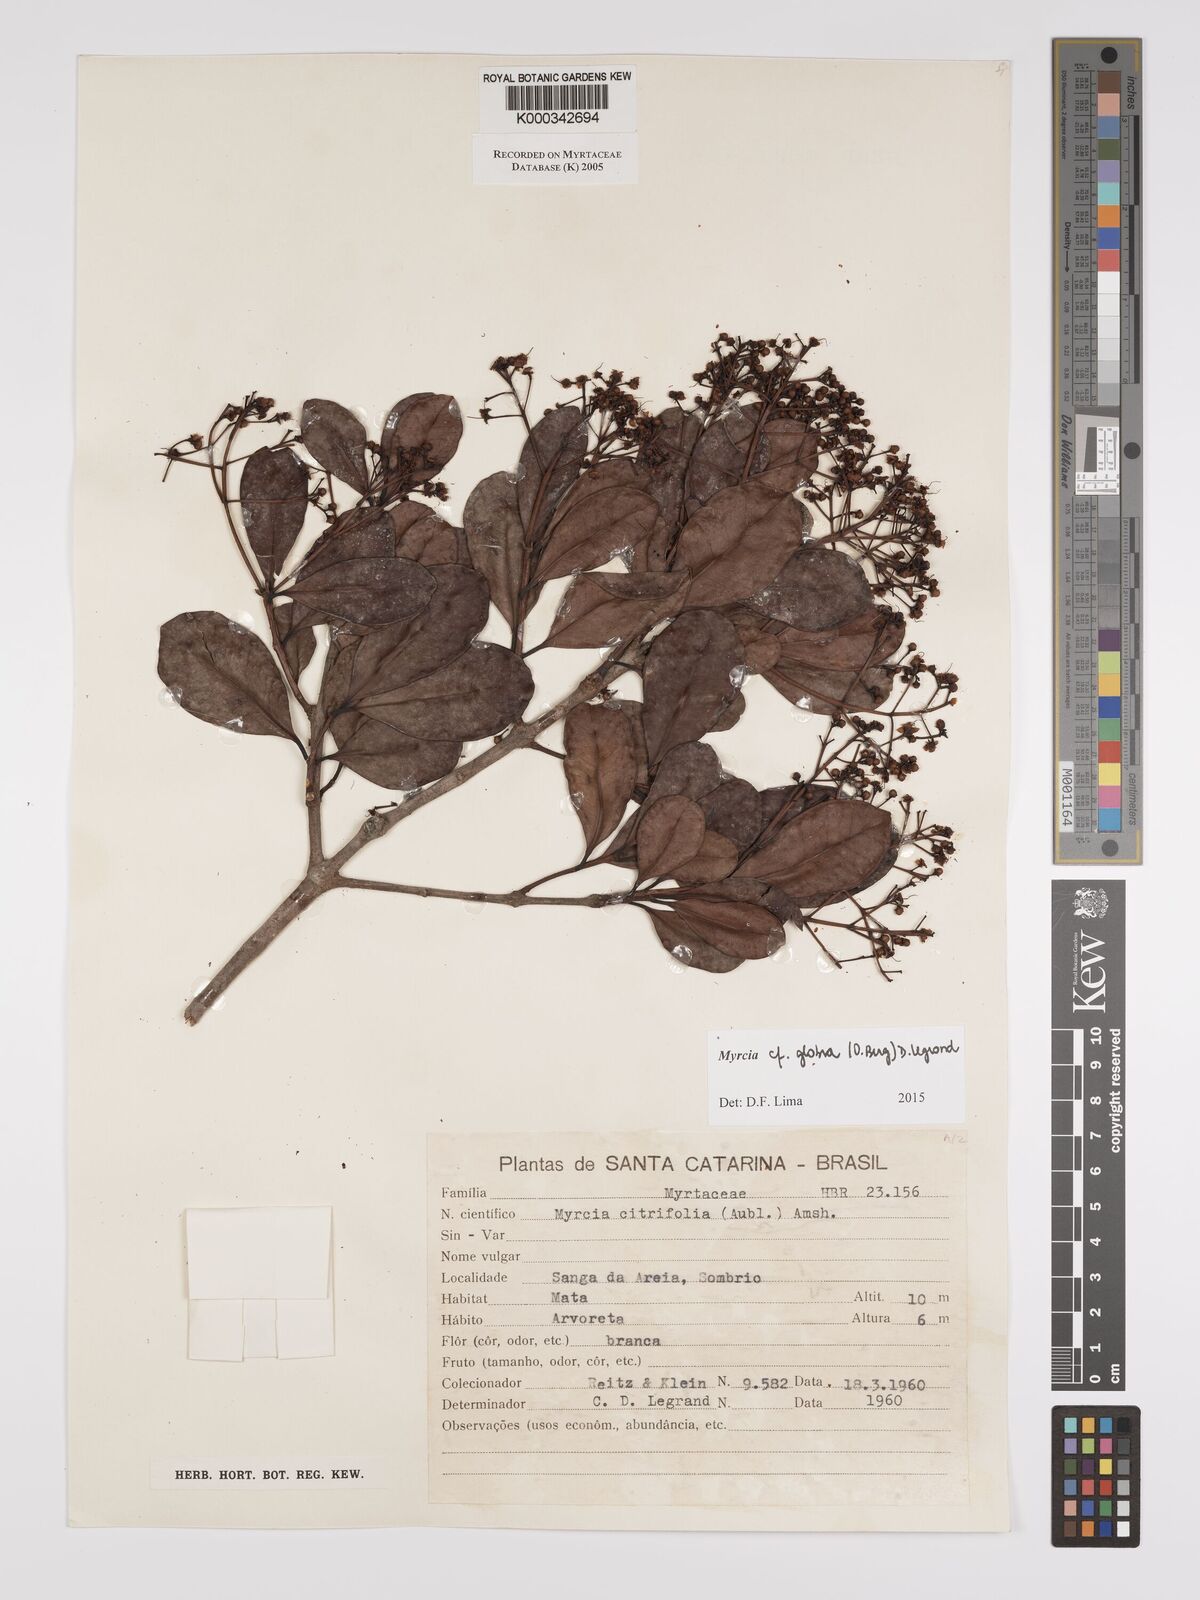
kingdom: Plantae
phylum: Tracheophyta
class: Magnoliopsida
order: Myrtales
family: Myrtaceae
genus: Myrcia
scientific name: Myrcia guianensis
